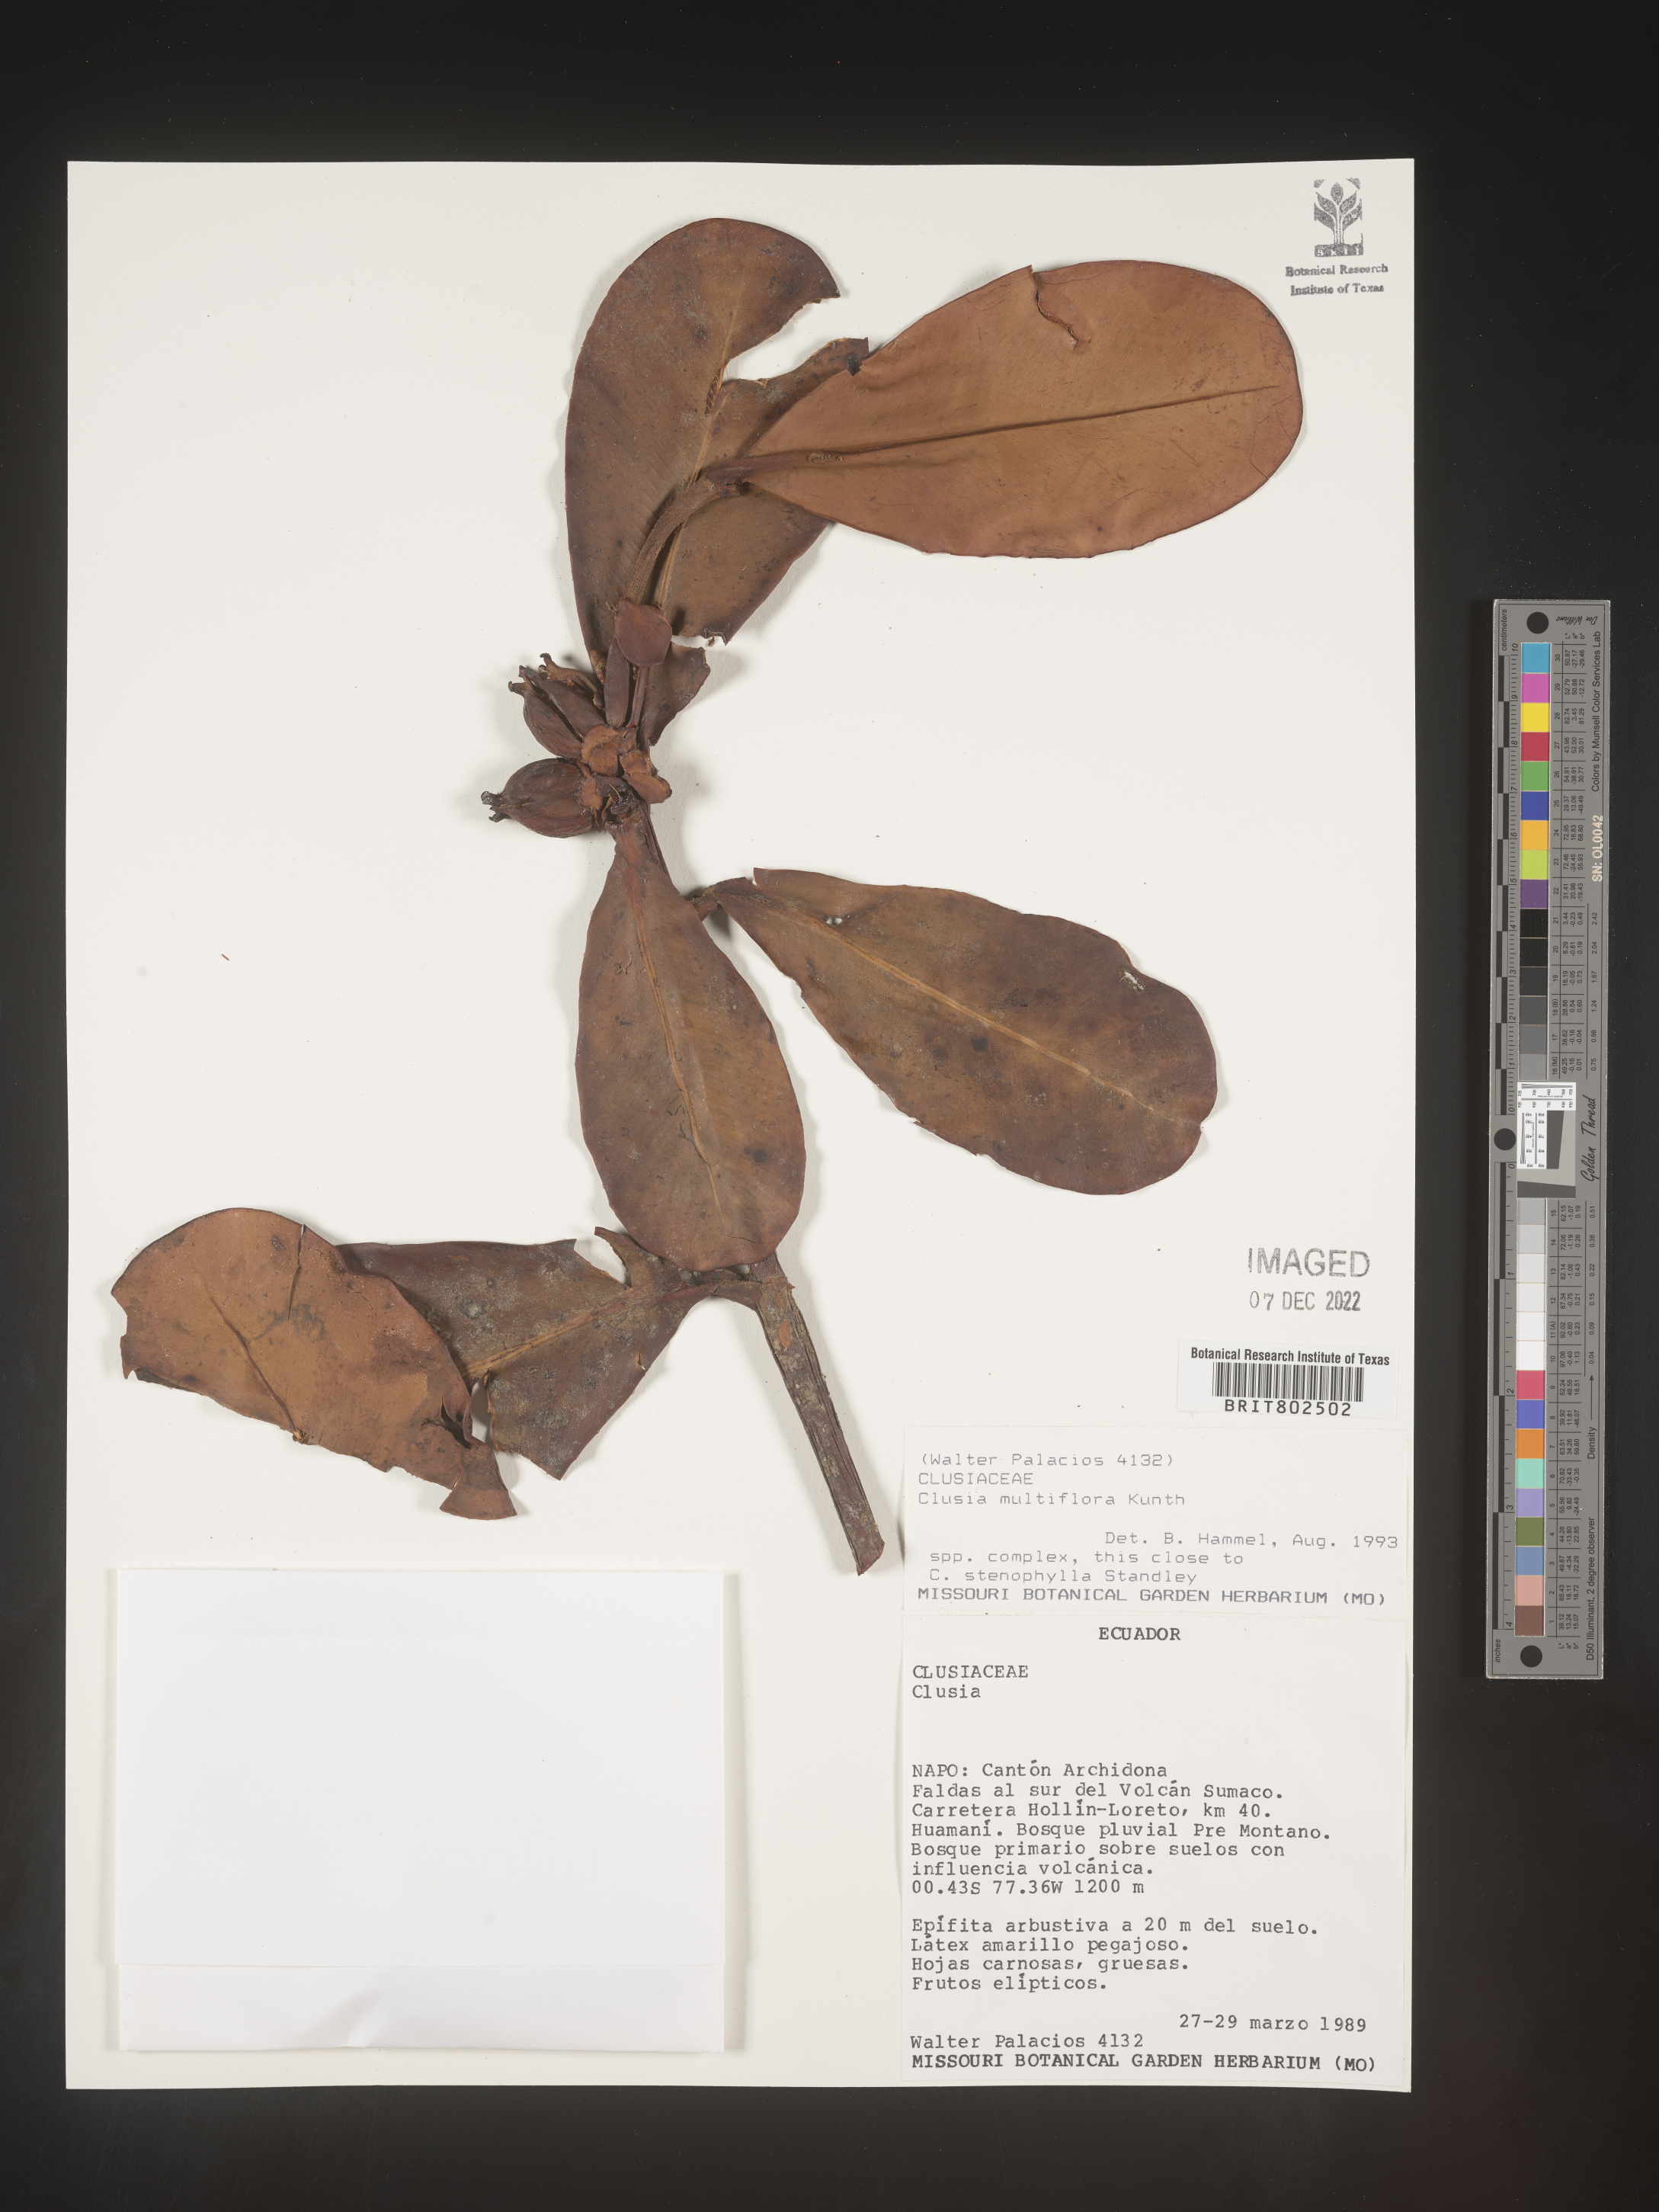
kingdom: Plantae
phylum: Tracheophyta
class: Magnoliopsida
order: Malpighiales
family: Clusiaceae
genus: Clusia
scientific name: Clusia multiflora
